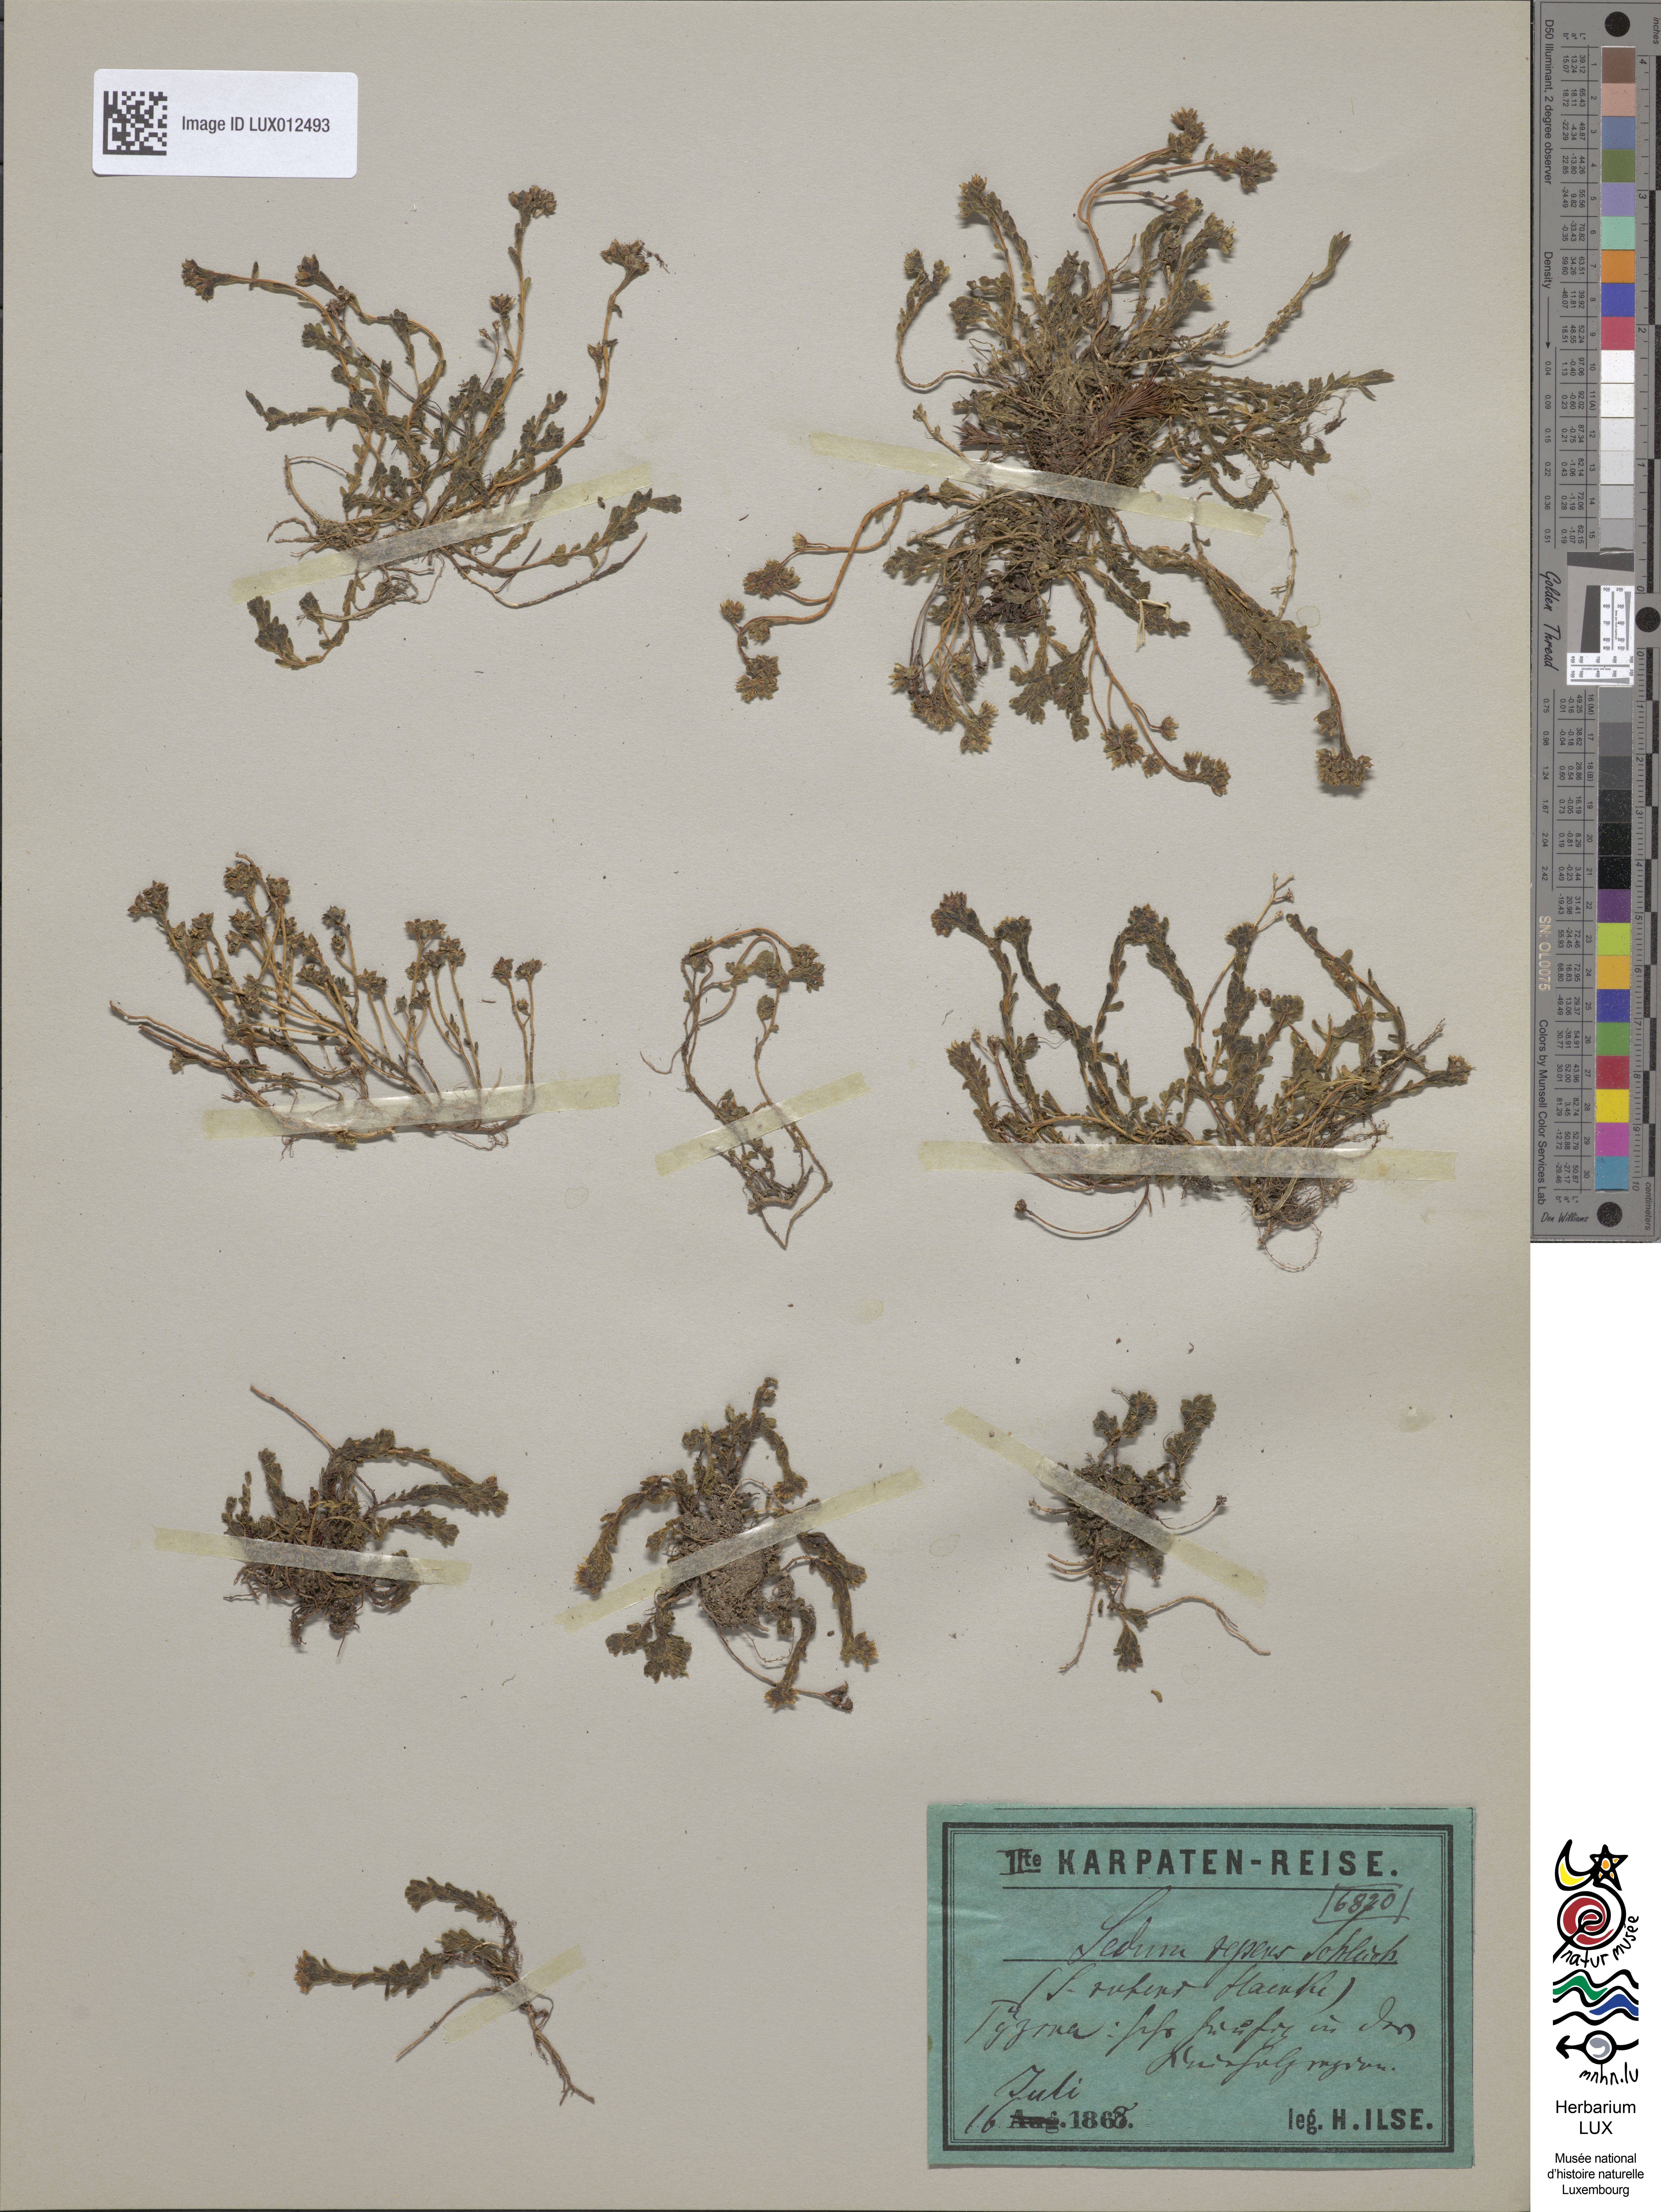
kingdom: Plantae
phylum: Tracheophyta
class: Magnoliopsida
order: Saxifragales
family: Crassulaceae
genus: Sedum
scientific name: Sedum alpestre
